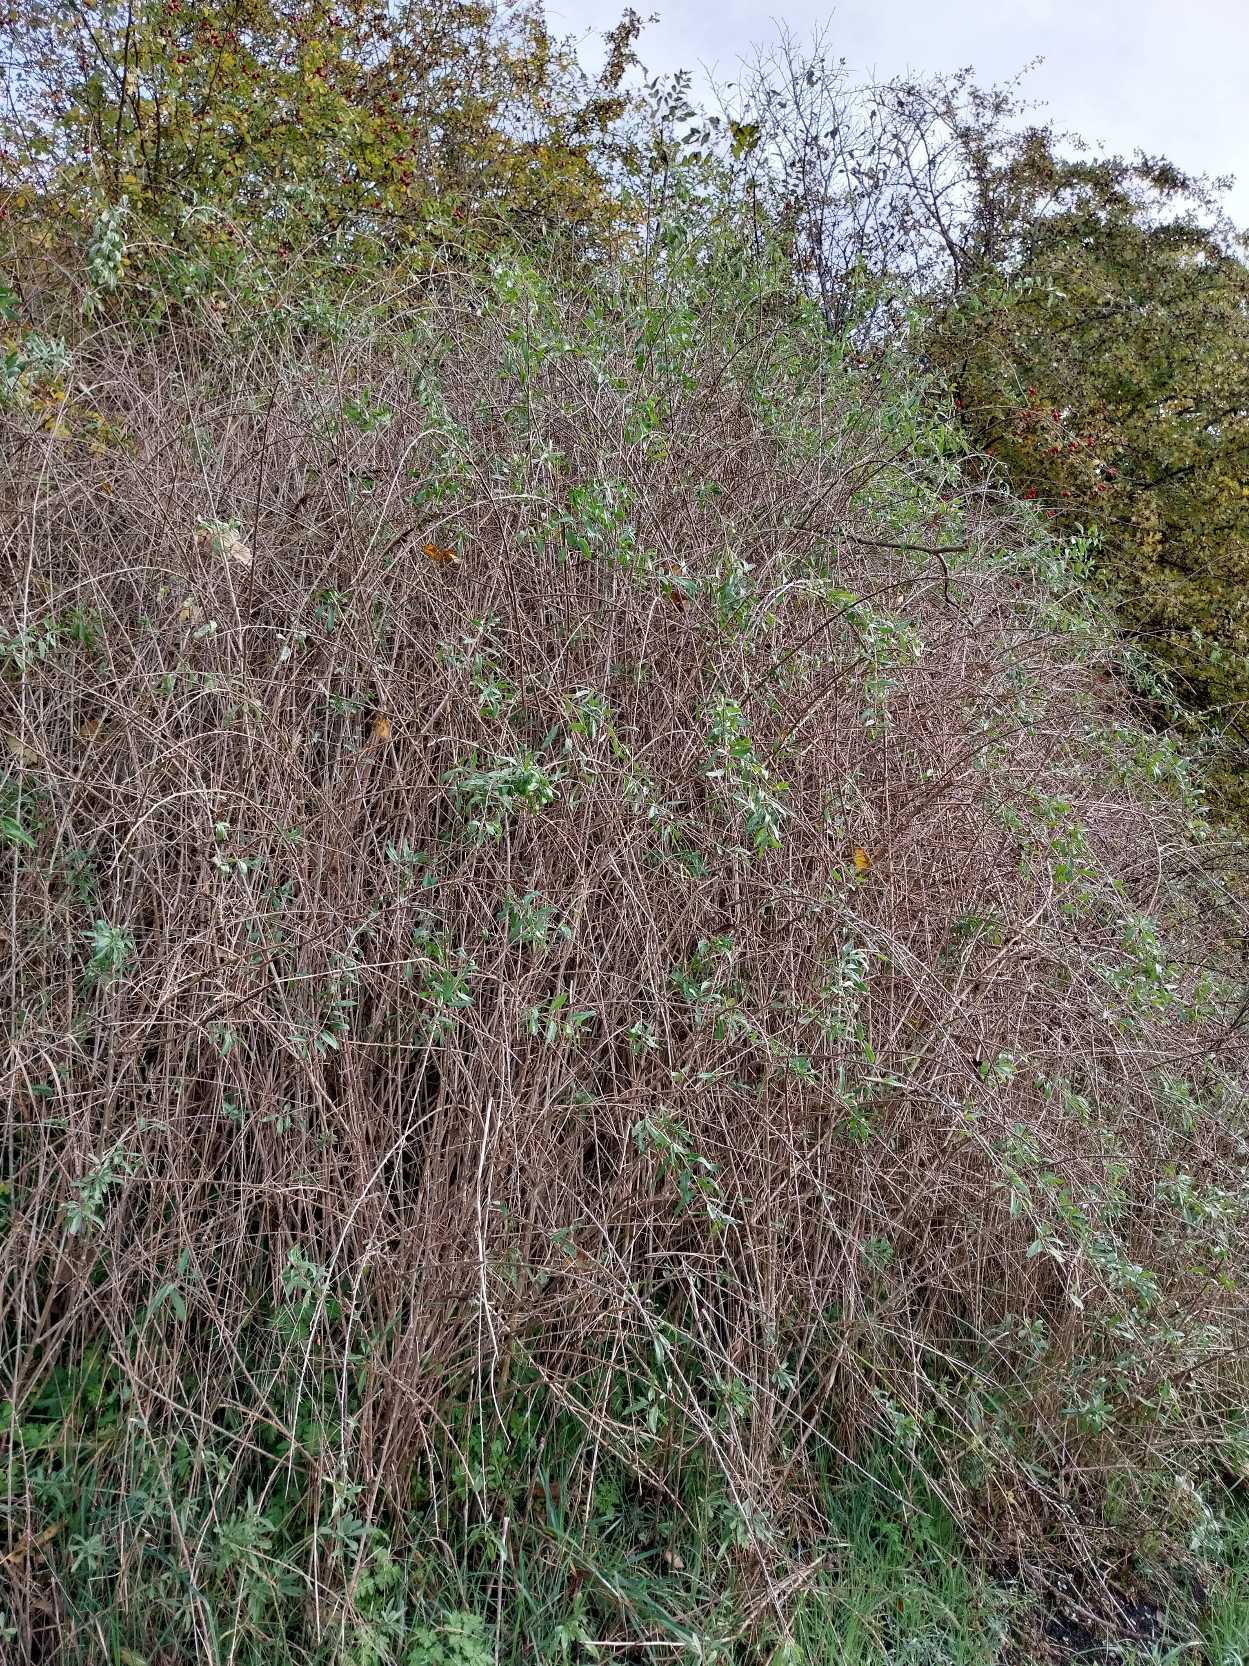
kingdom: Plantae
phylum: Tracheophyta
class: Magnoliopsida
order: Solanales
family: Solanaceae
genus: Lycium
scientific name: Lycium barbarum
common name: Bukketorn
